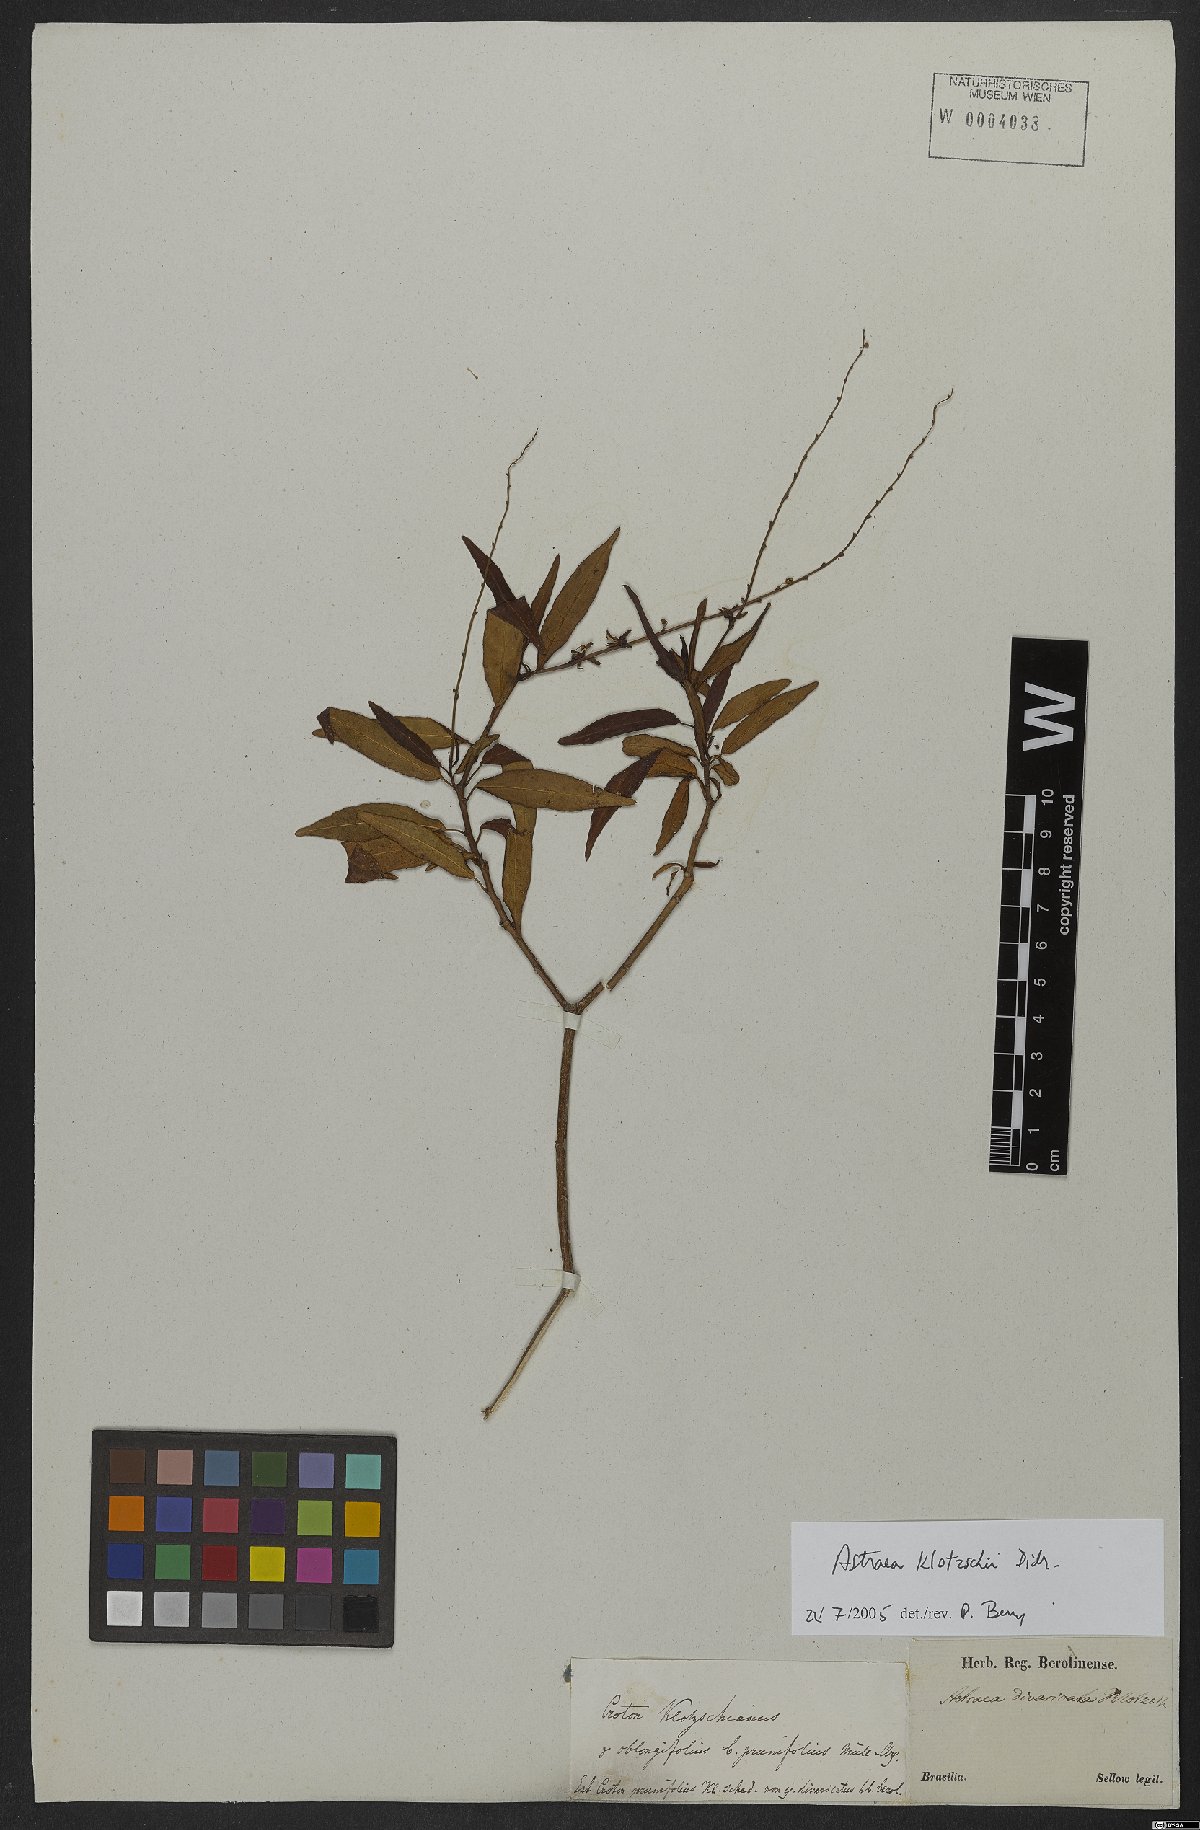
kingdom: Plantae
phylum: Tracheophyta
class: Magnoliopsida
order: Malpighiales
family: Euphorbiaceae
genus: Astraea
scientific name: Astraea macroura
